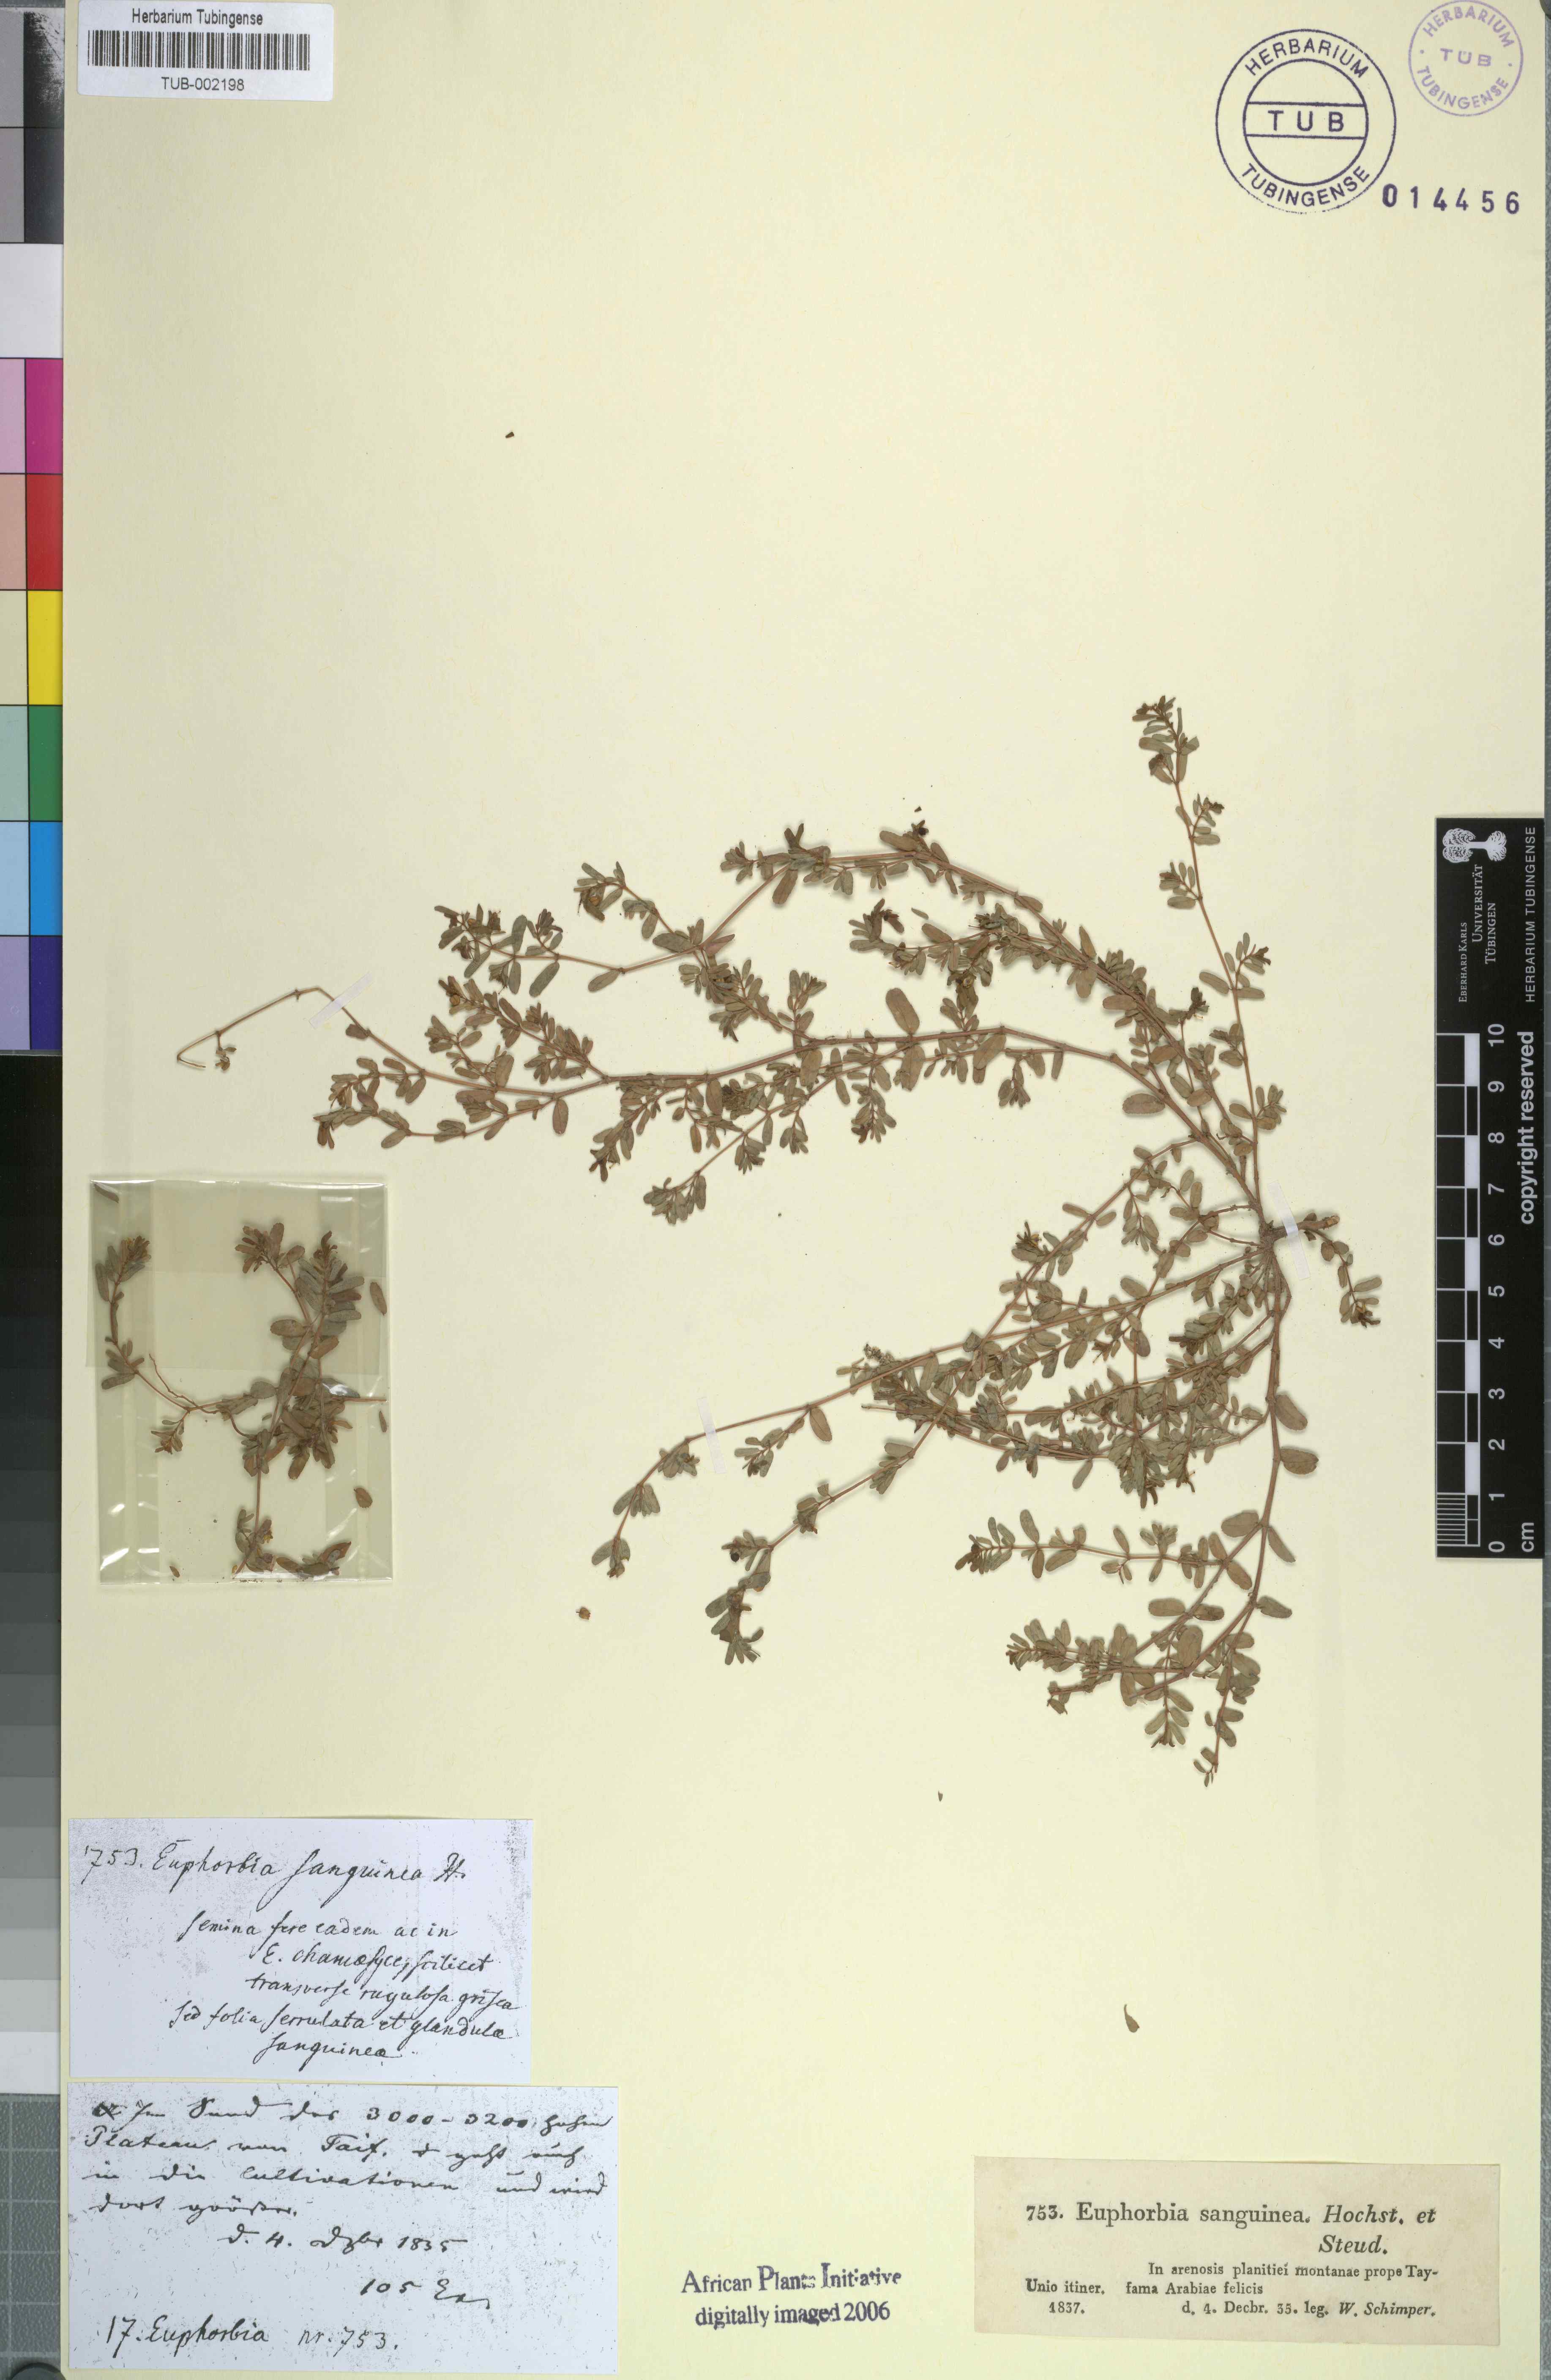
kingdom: Plantae
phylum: Tracheophyta
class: Magnoliopsida
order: Malpighiales
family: Euphorbiaceae
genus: Euphorbia
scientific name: Euphorbia inaequilatera
